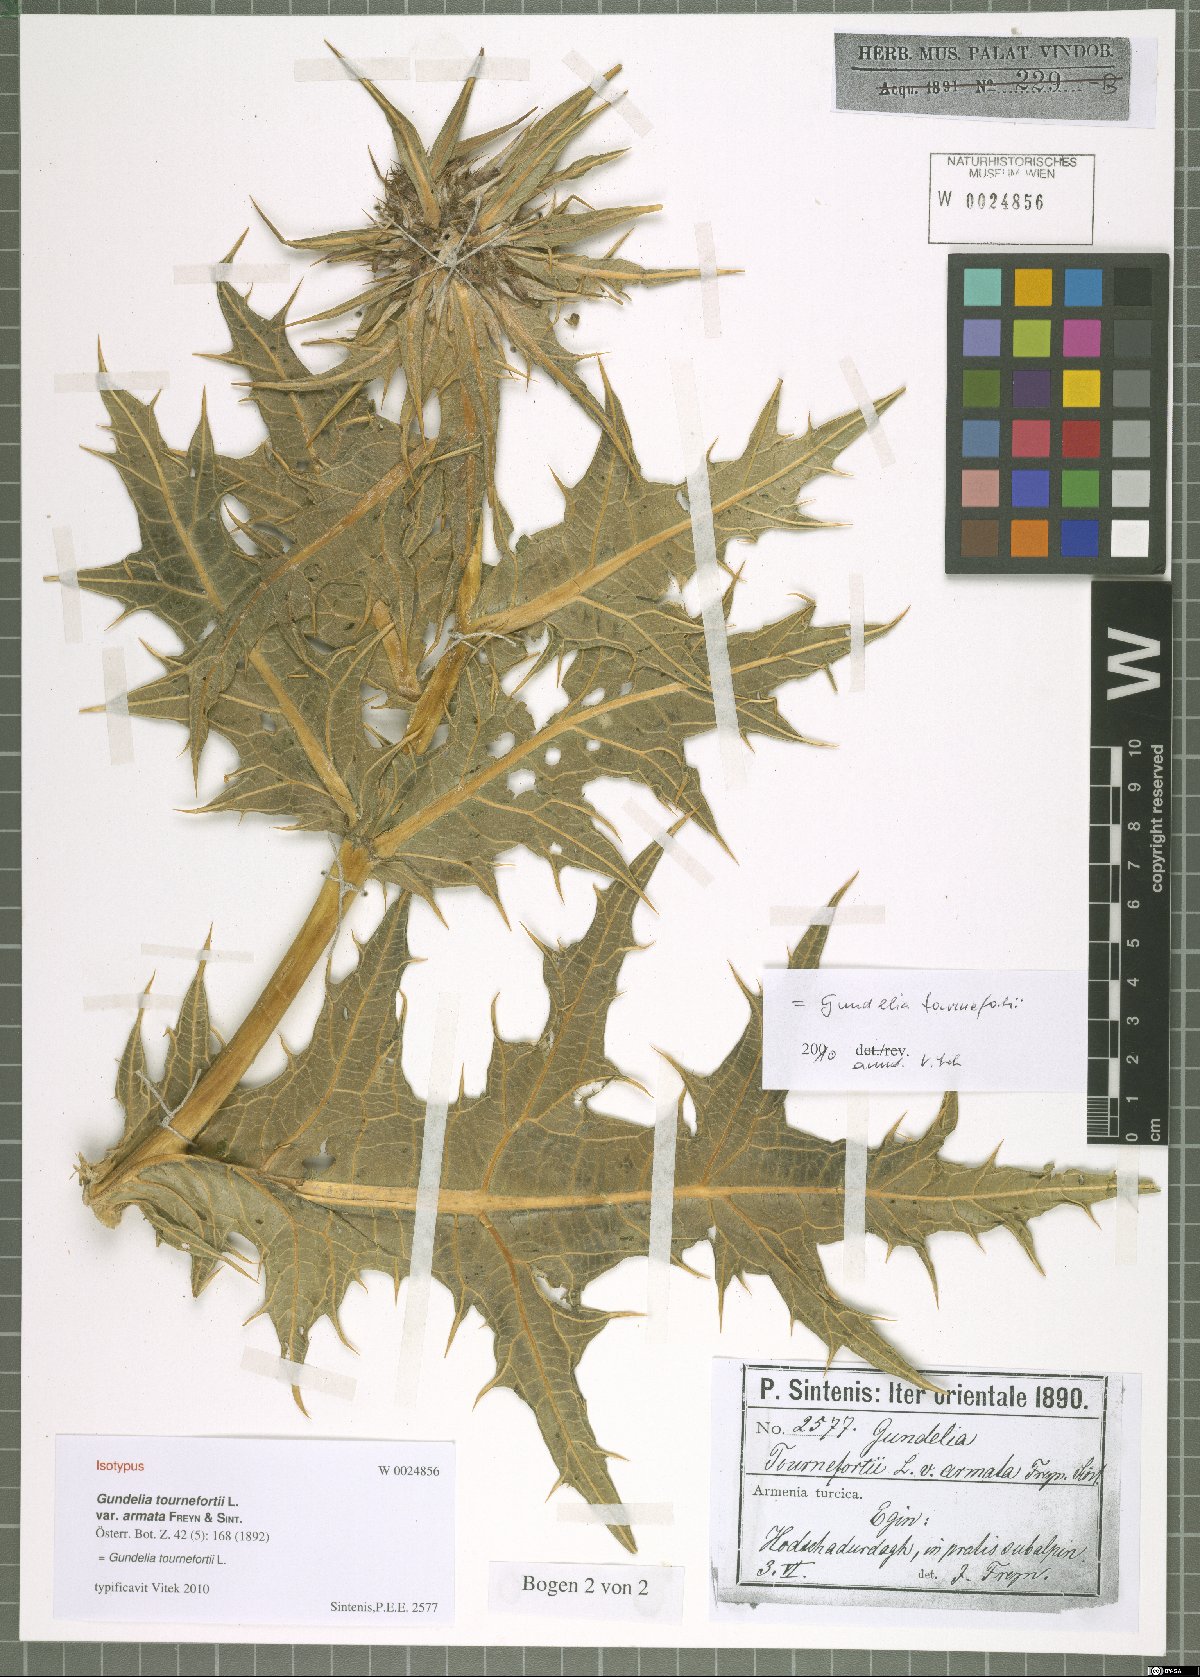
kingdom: Plantae
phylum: Tracheophyta
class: Magnoliopsida
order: Asterales
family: Asteraceae
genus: Gundelia
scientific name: Gundelia tournefortii
